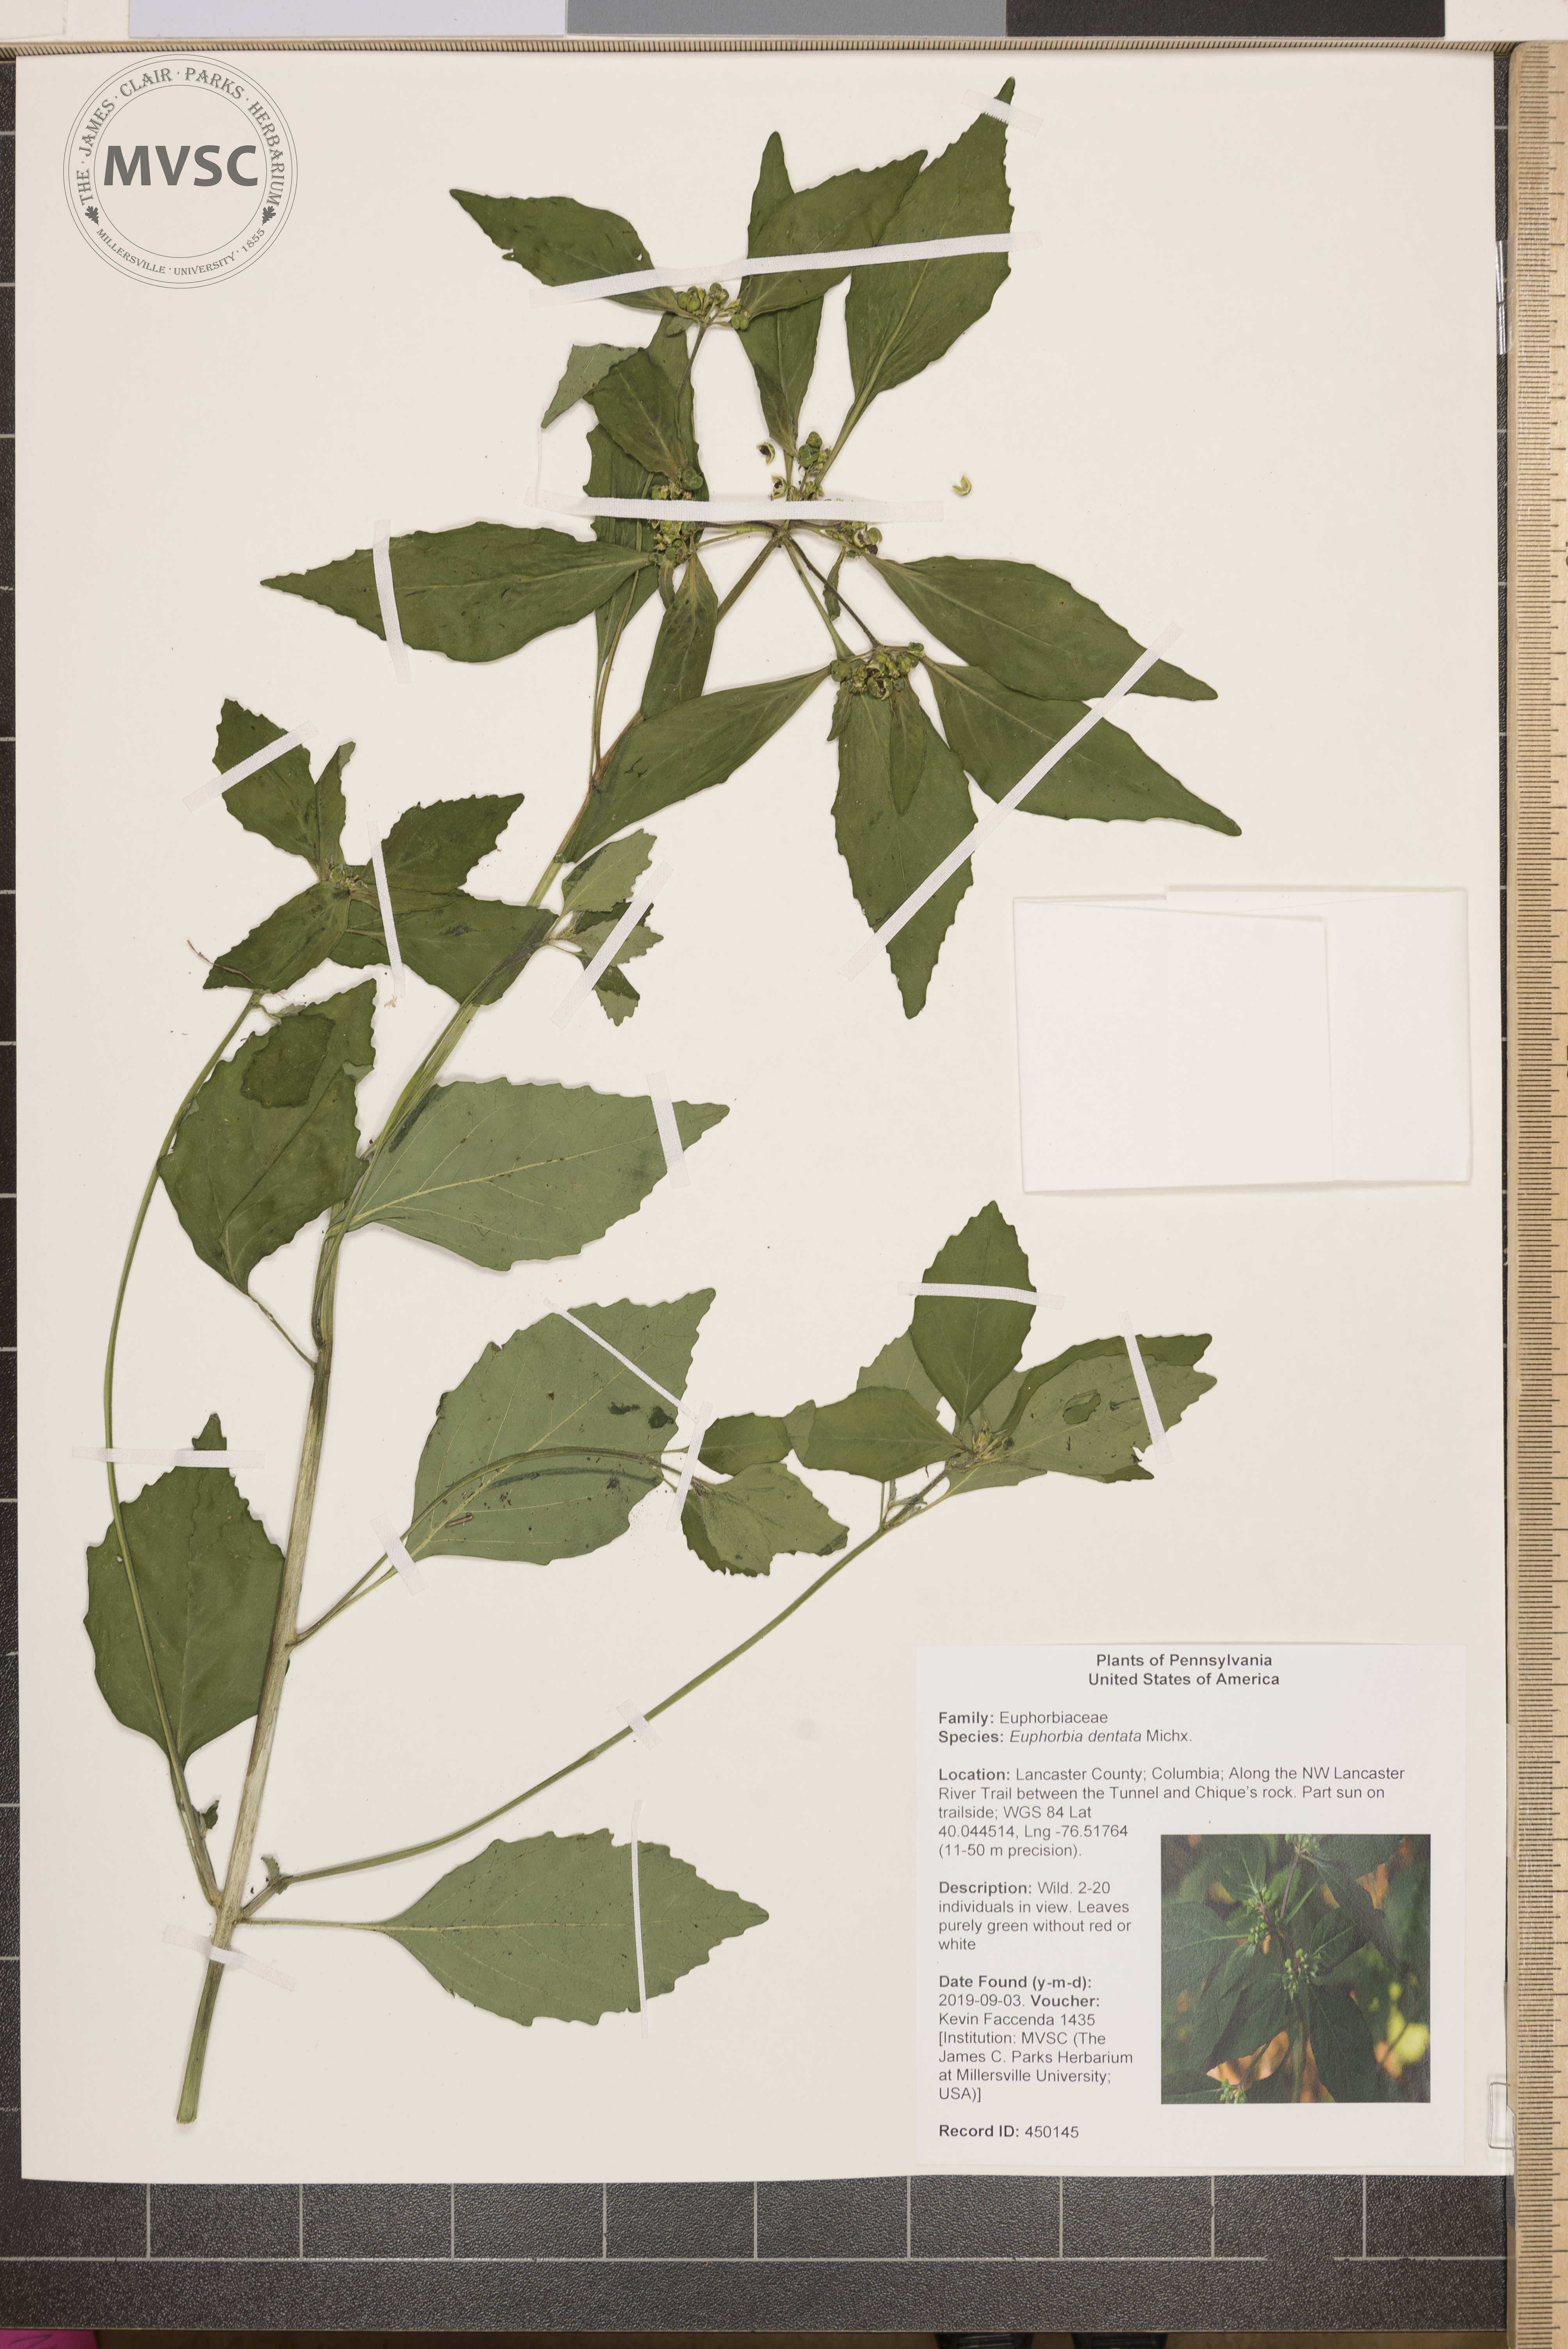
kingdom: Plantae
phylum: Tracheophyta
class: Magnoliopsida
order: Malpighiales
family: Euphorbiaceae
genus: Euphorbia
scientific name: Euphorbia dentata
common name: Dentate spurge
